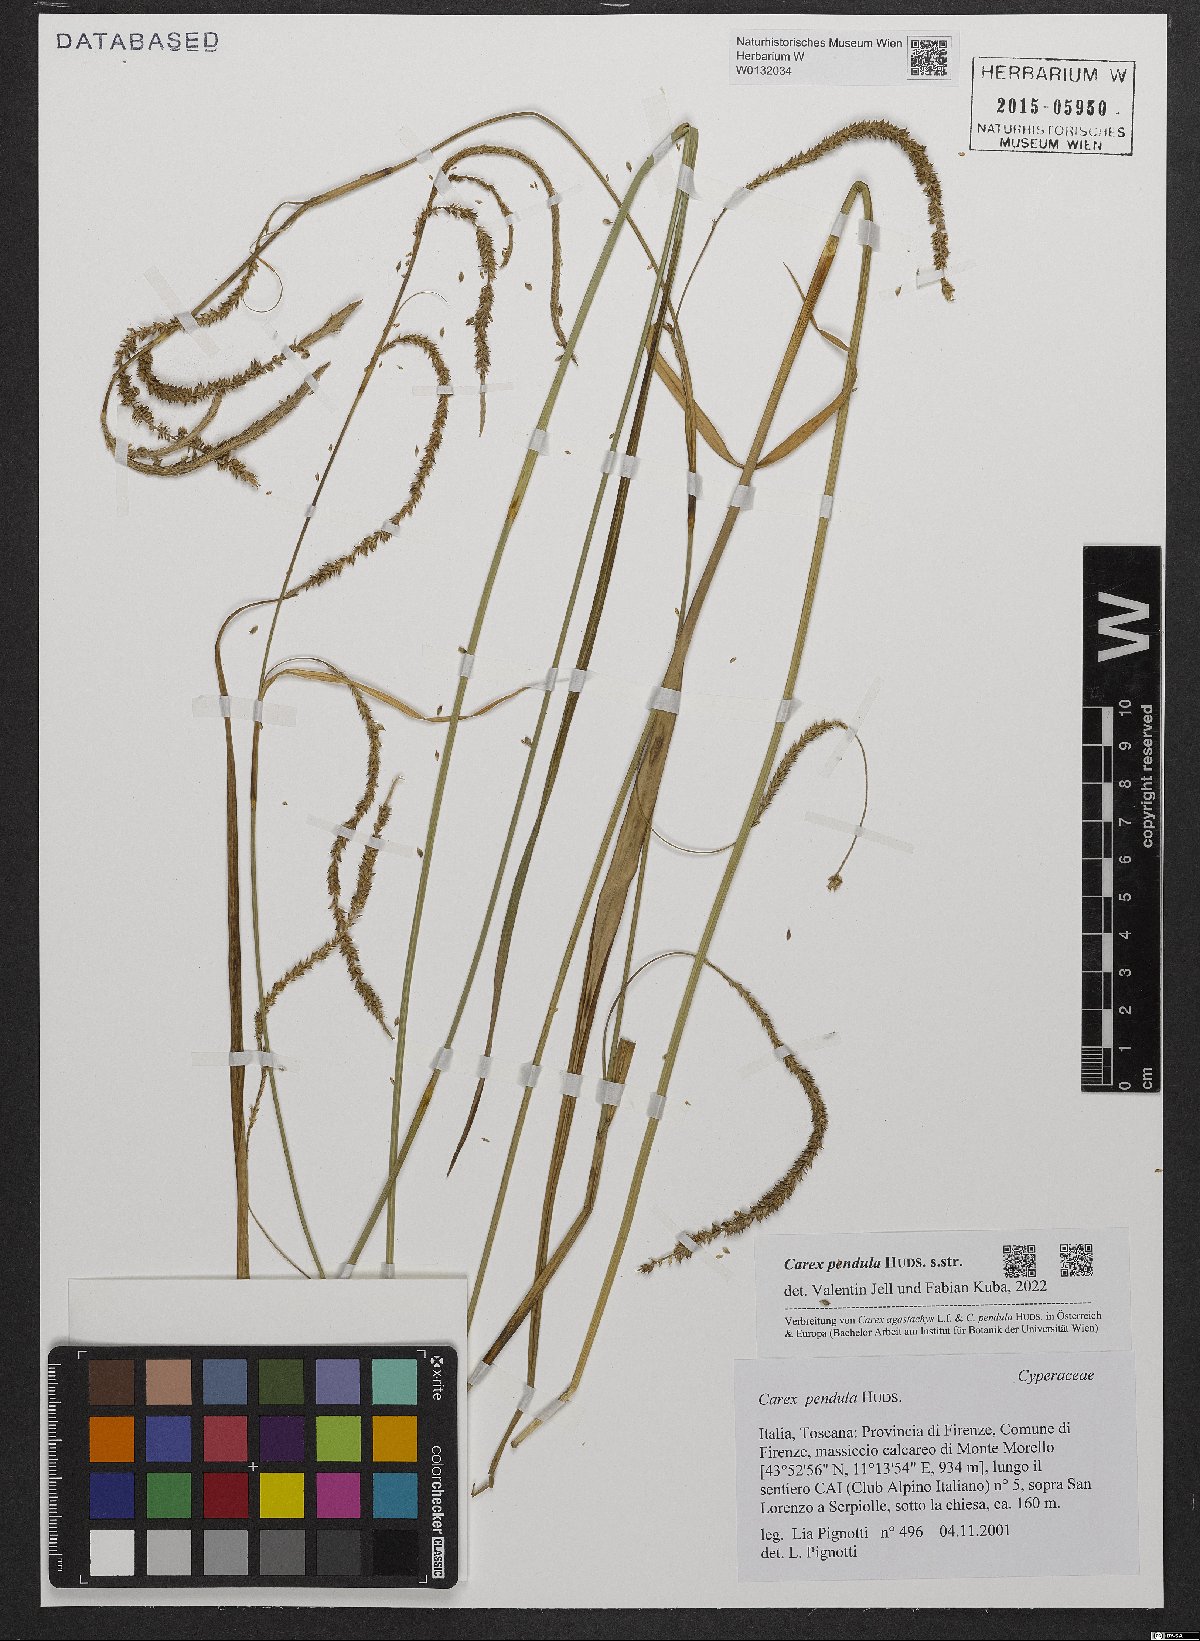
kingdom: Plantae
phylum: Tracheophyta
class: Liliopsida
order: Poales
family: Cyperaceae
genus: Carex
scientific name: Carex pendula
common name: Pendulous sedge
